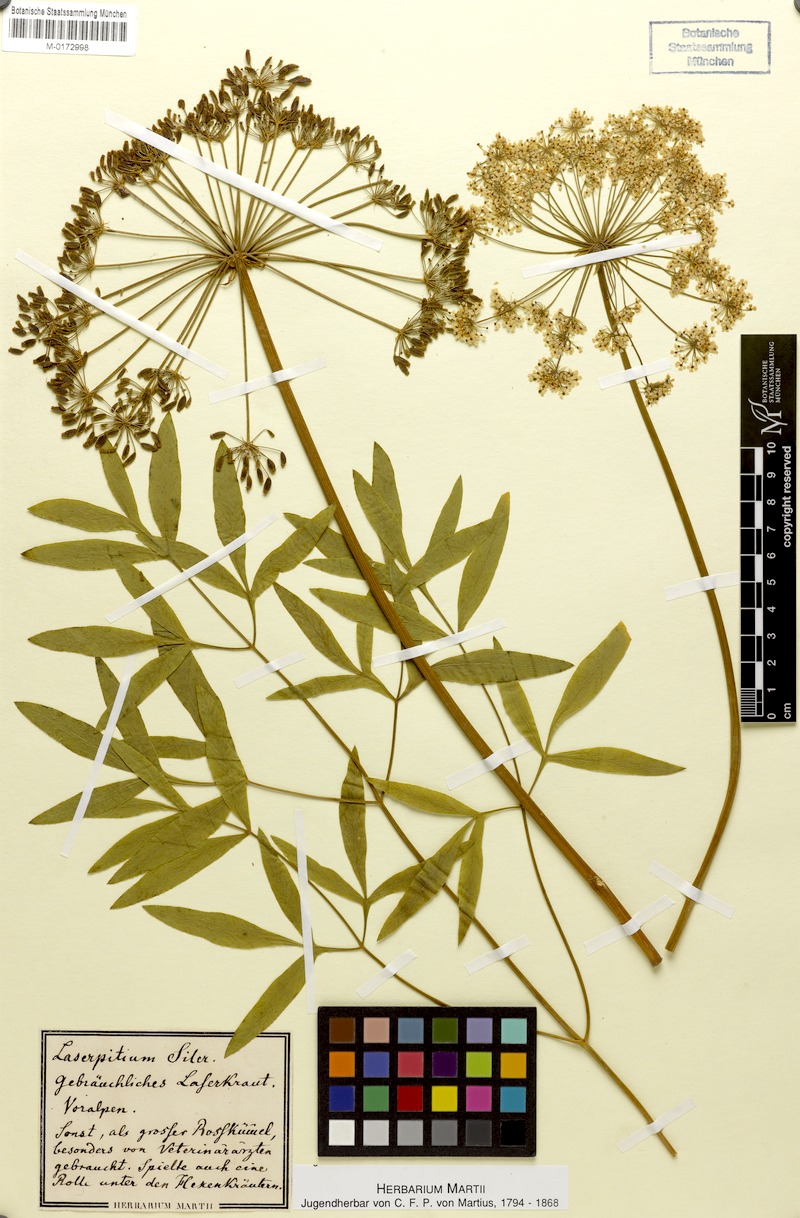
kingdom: Plantae
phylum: Tracheophyta
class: Magnoliopsida
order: Apiales
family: Apiaceae
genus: Siler
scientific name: Siler montanum
